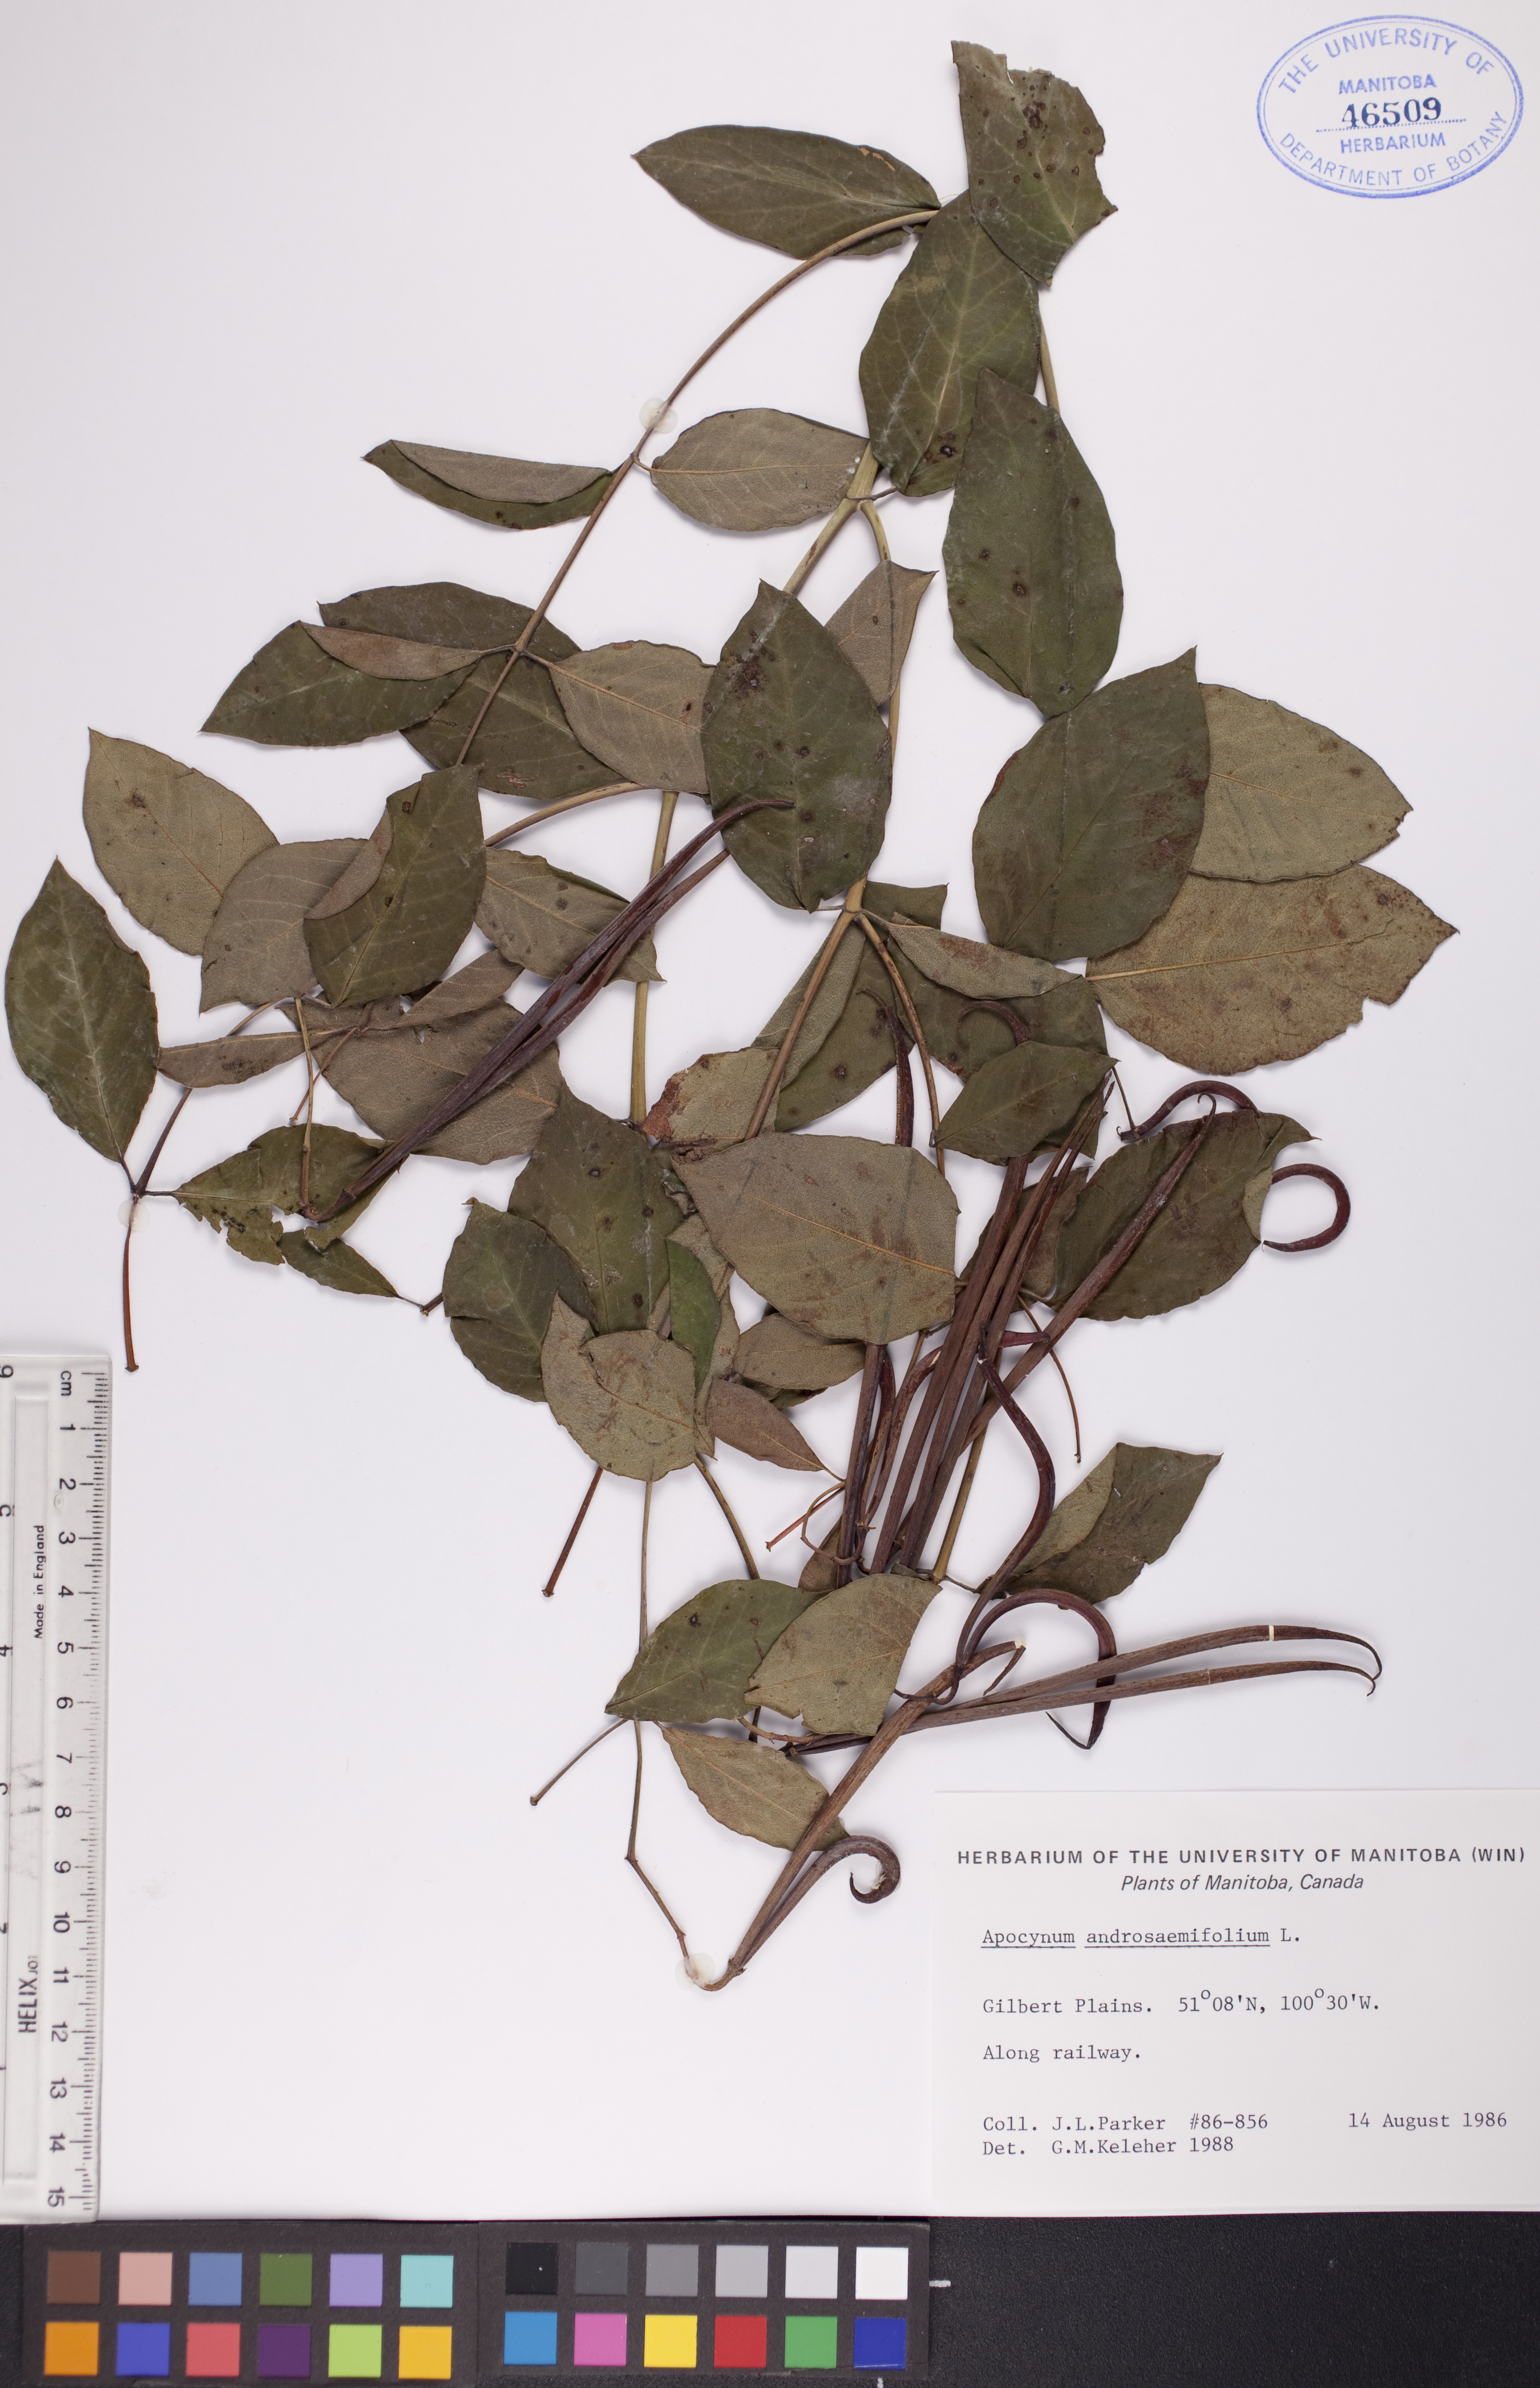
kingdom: Plantae
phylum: Tracheophyta
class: Magnoliopsida
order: Gentianales
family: Apocynaceae
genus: Apocynum
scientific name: Apocynum androsaemifolium
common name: Spreading dogbane
